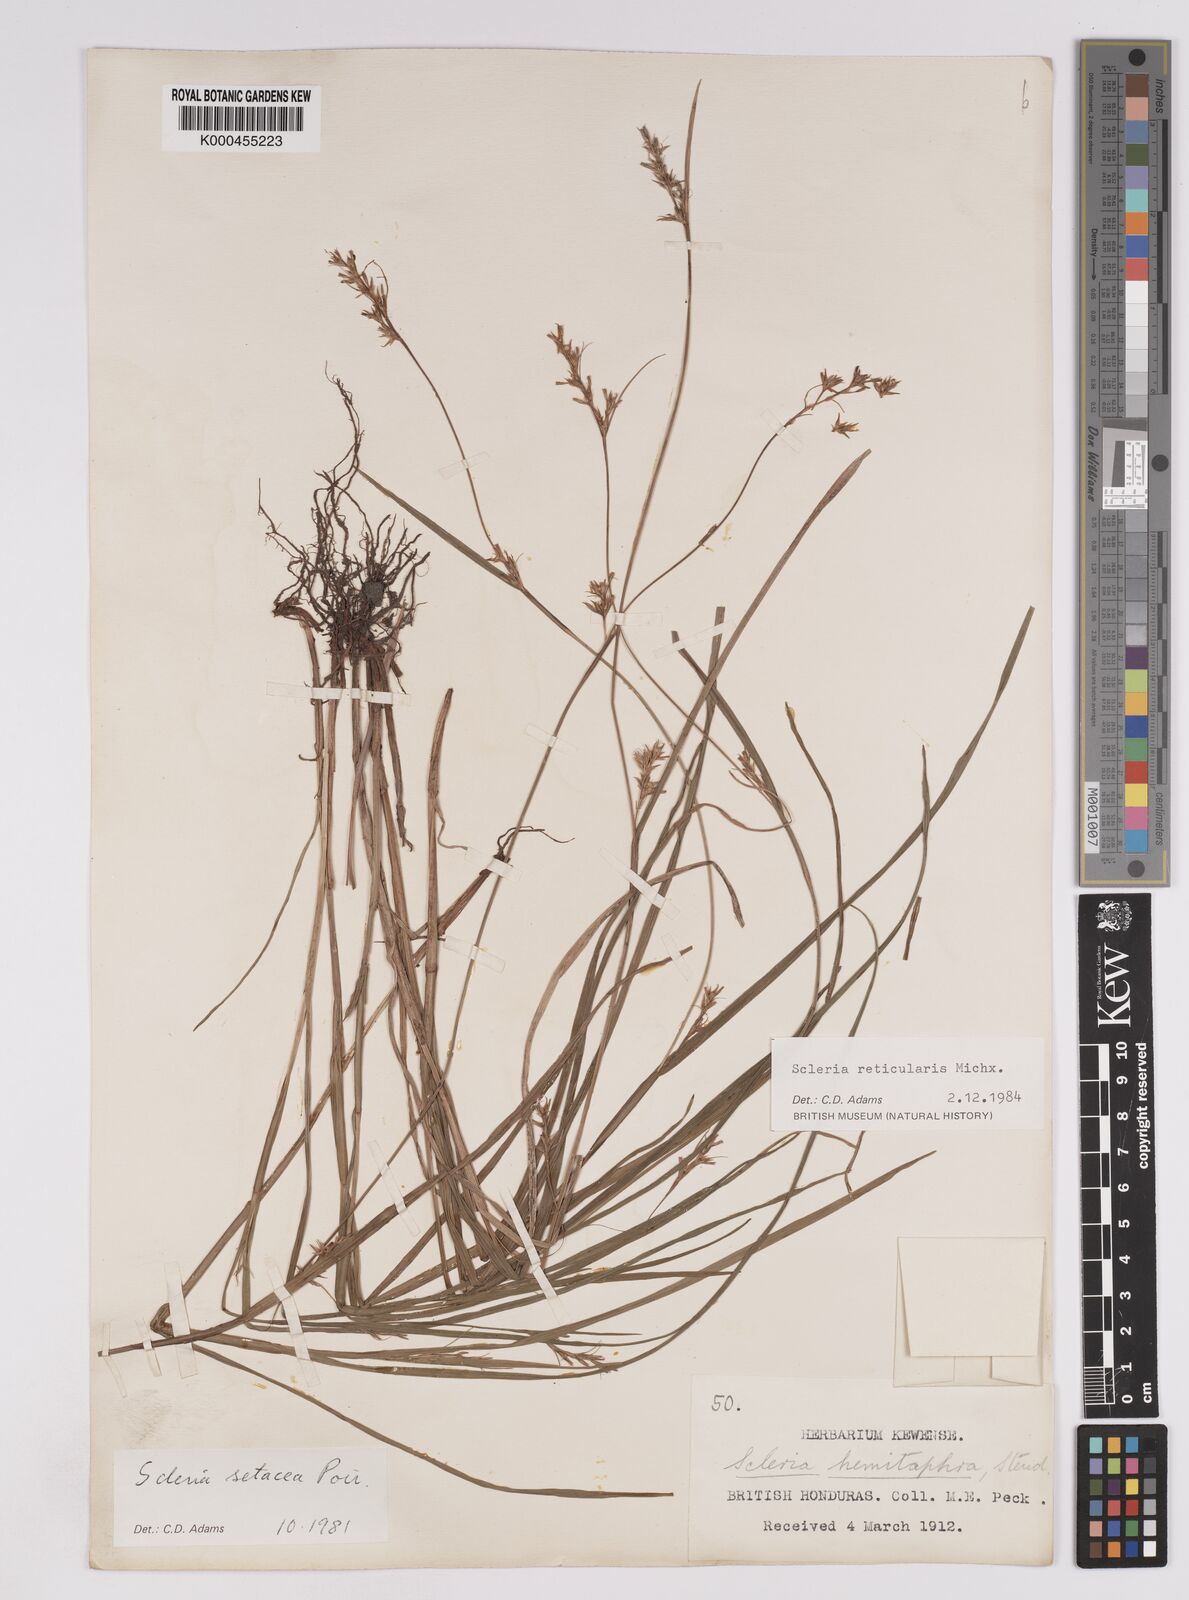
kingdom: Plantae
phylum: Tracheophyta
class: Liliopsida
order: Poales
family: Cyperaceae
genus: Scleria
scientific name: Scleria
